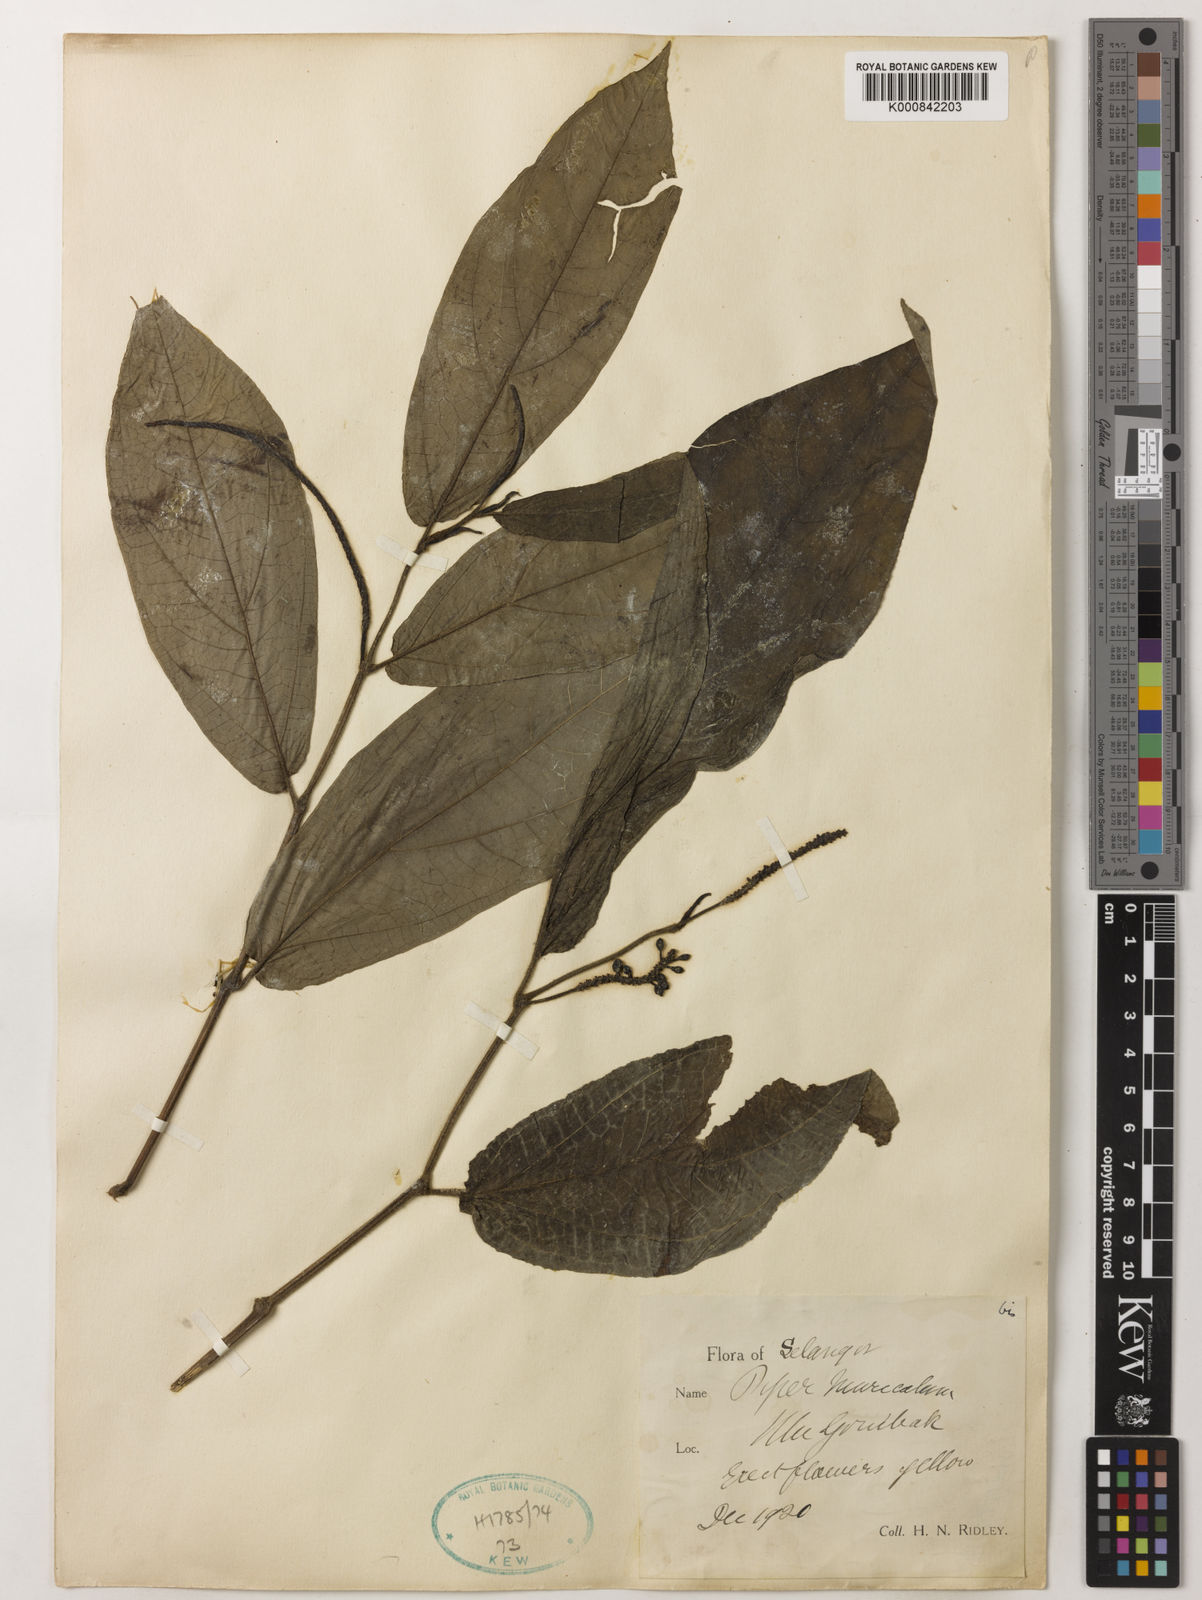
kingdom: Plantae
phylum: Tracheophyta
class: Magnoliopsida
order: Piperales
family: Piperaceae
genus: Piper
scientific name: Piper muricatum
